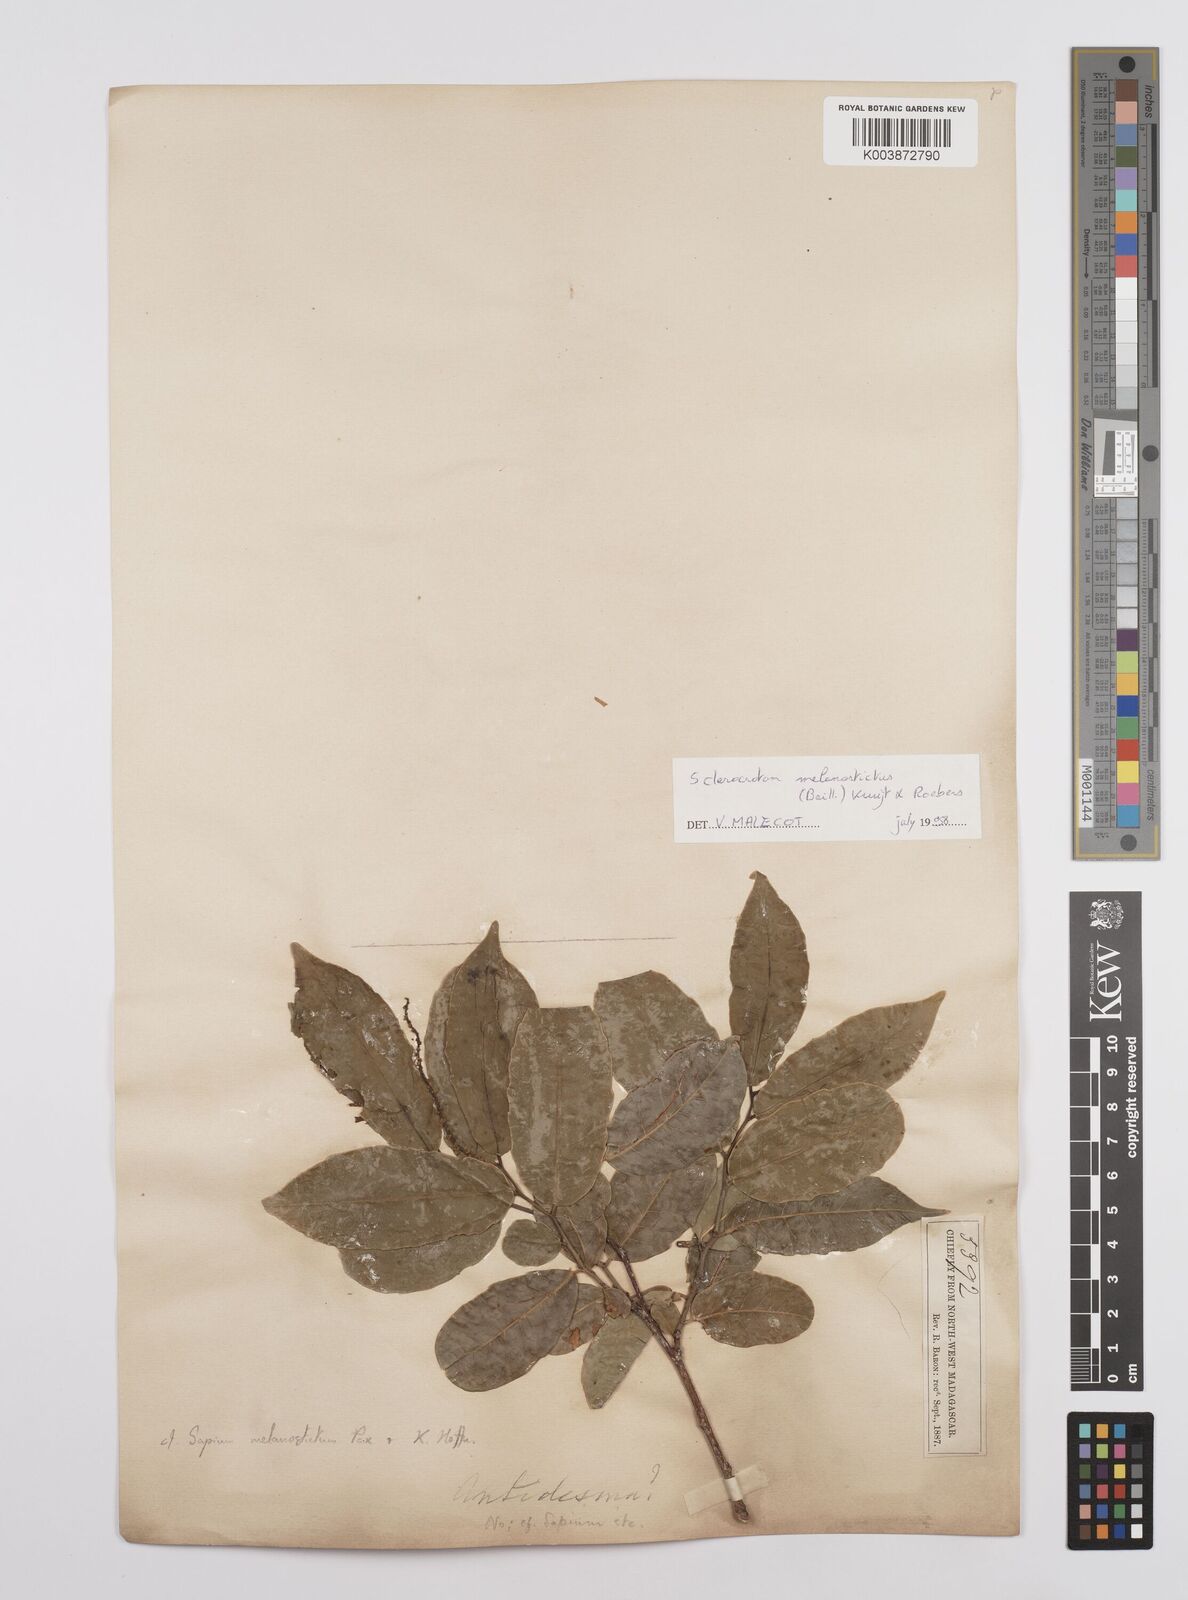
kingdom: Plantae
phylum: Tracheophyta
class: Magnoliopsida
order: Malpighiales
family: Euphorbiaceae
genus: Sclerocroton
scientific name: Sclerocroton melanostictus
